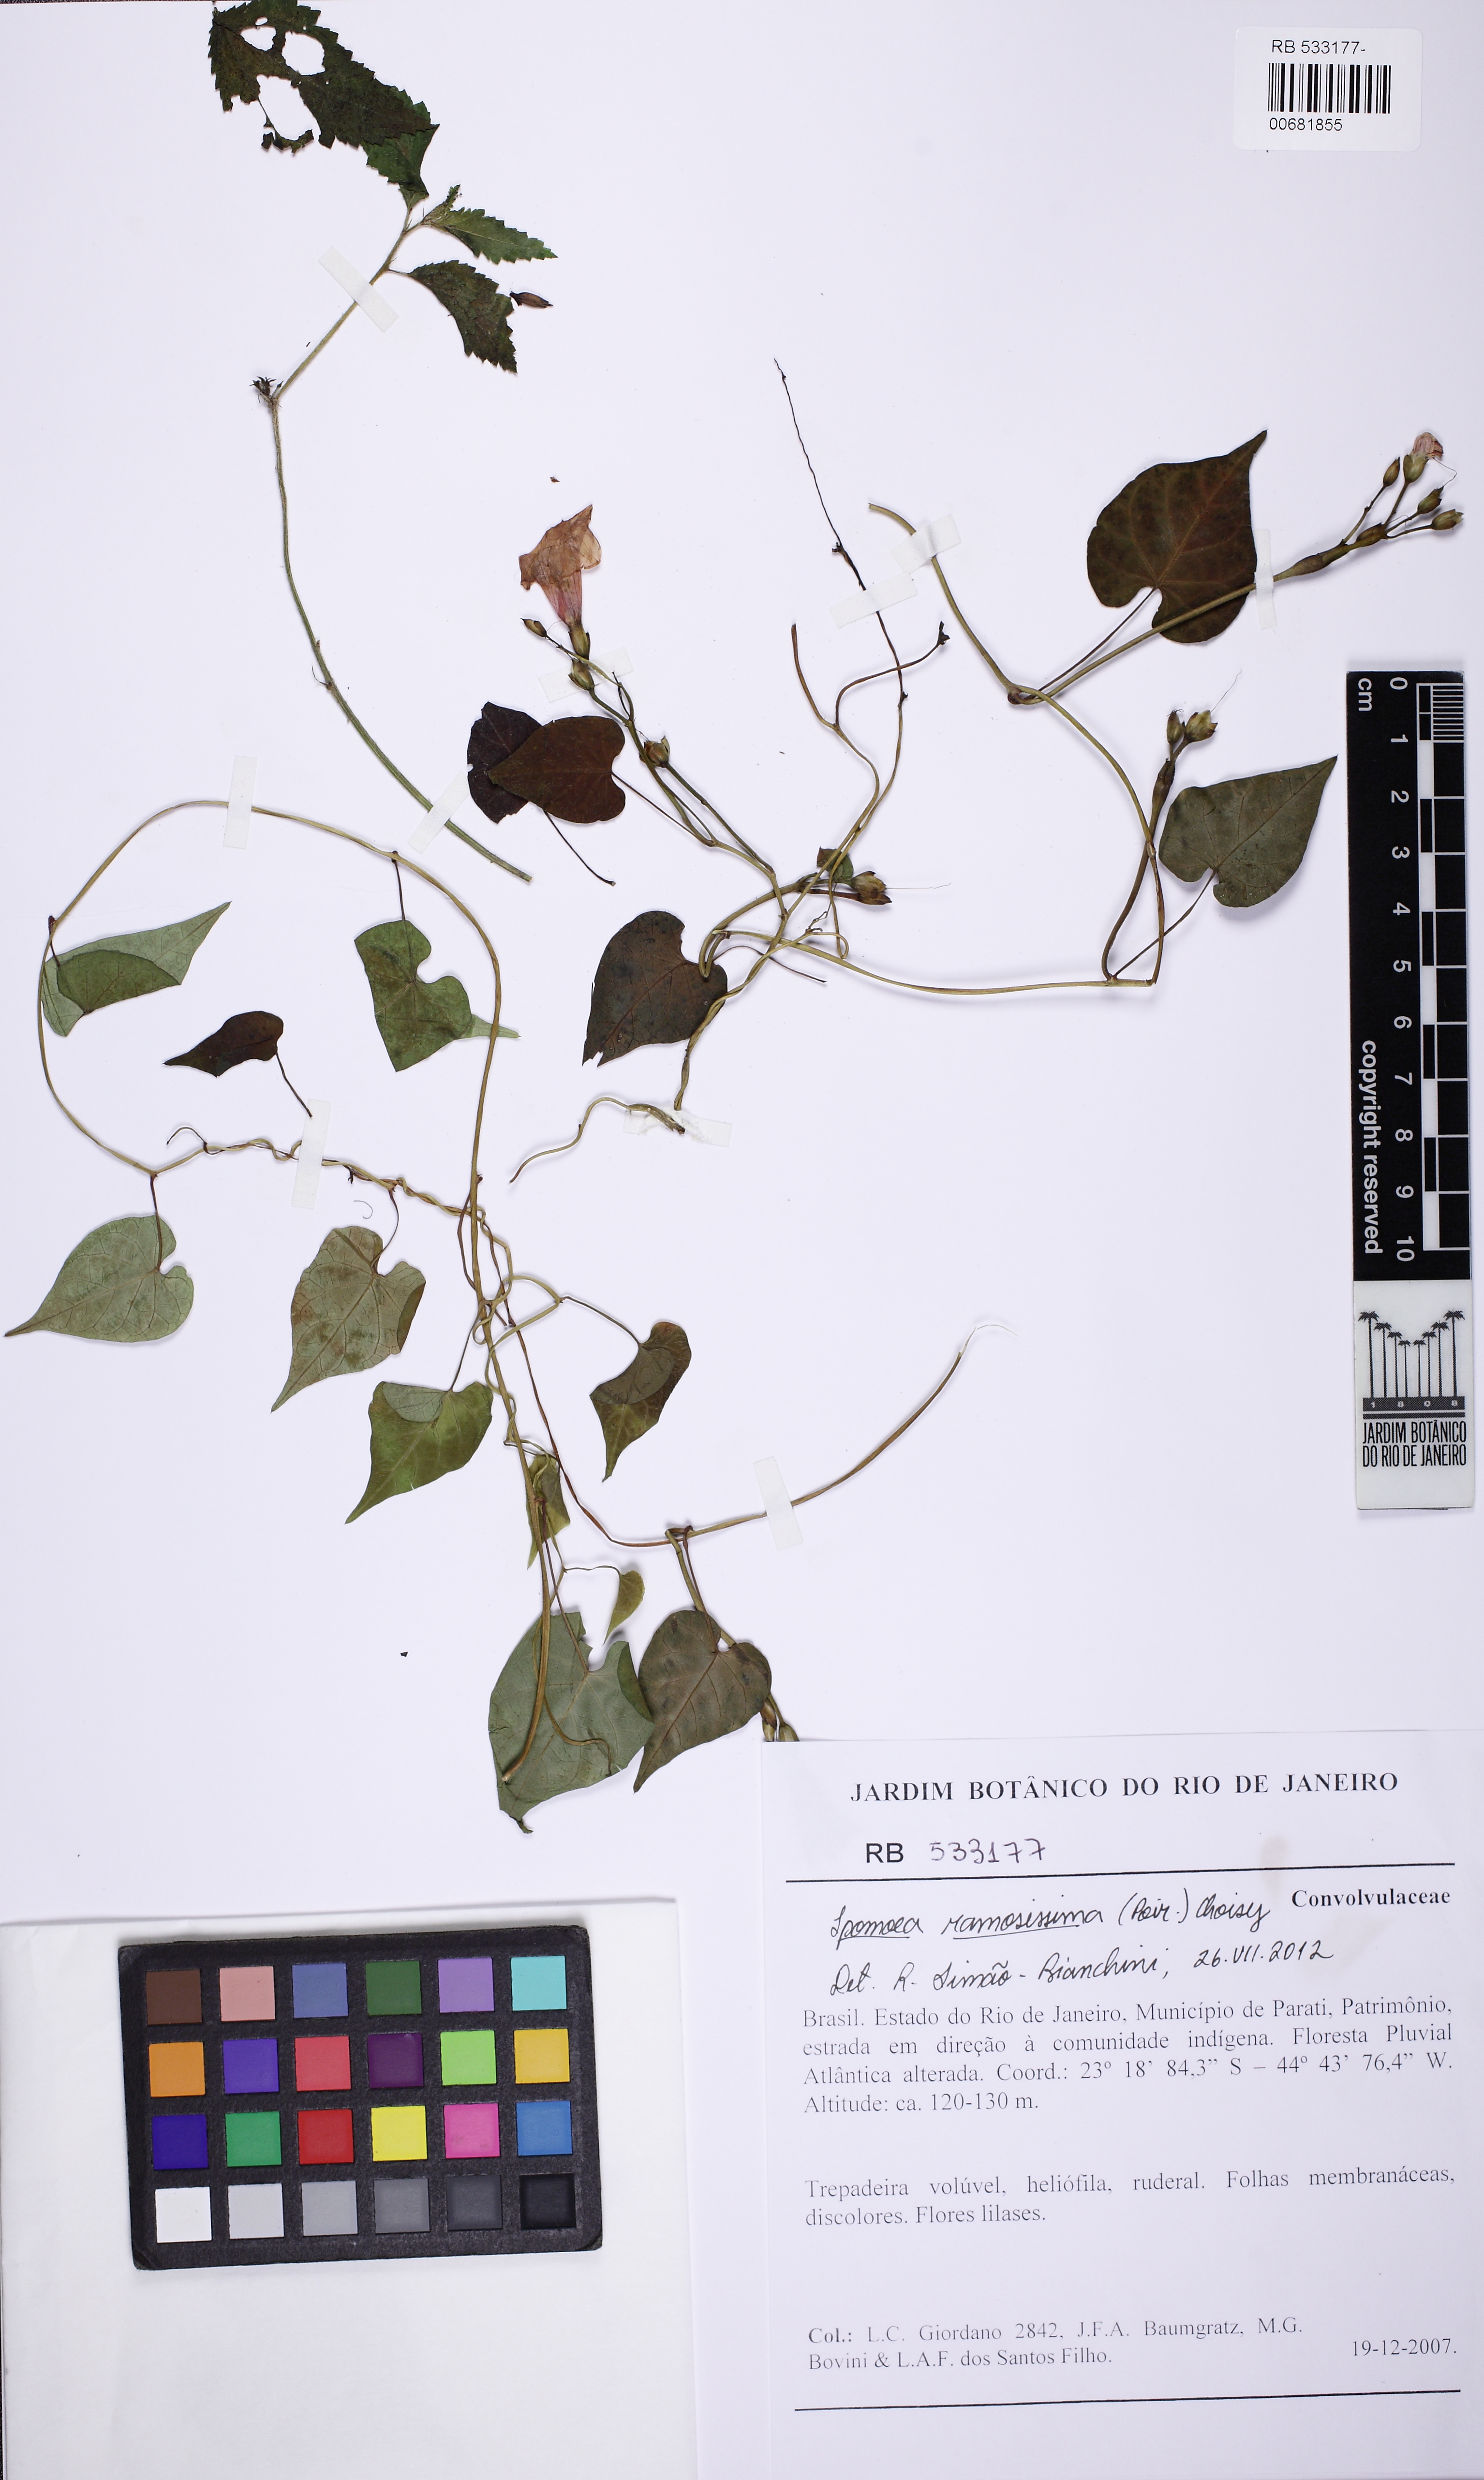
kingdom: Plantae
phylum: Tracheophyta
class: Magnoliopsida
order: Solanales
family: Convolvulaceae
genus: Ipomoea
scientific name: Ipomoea ramosissima
